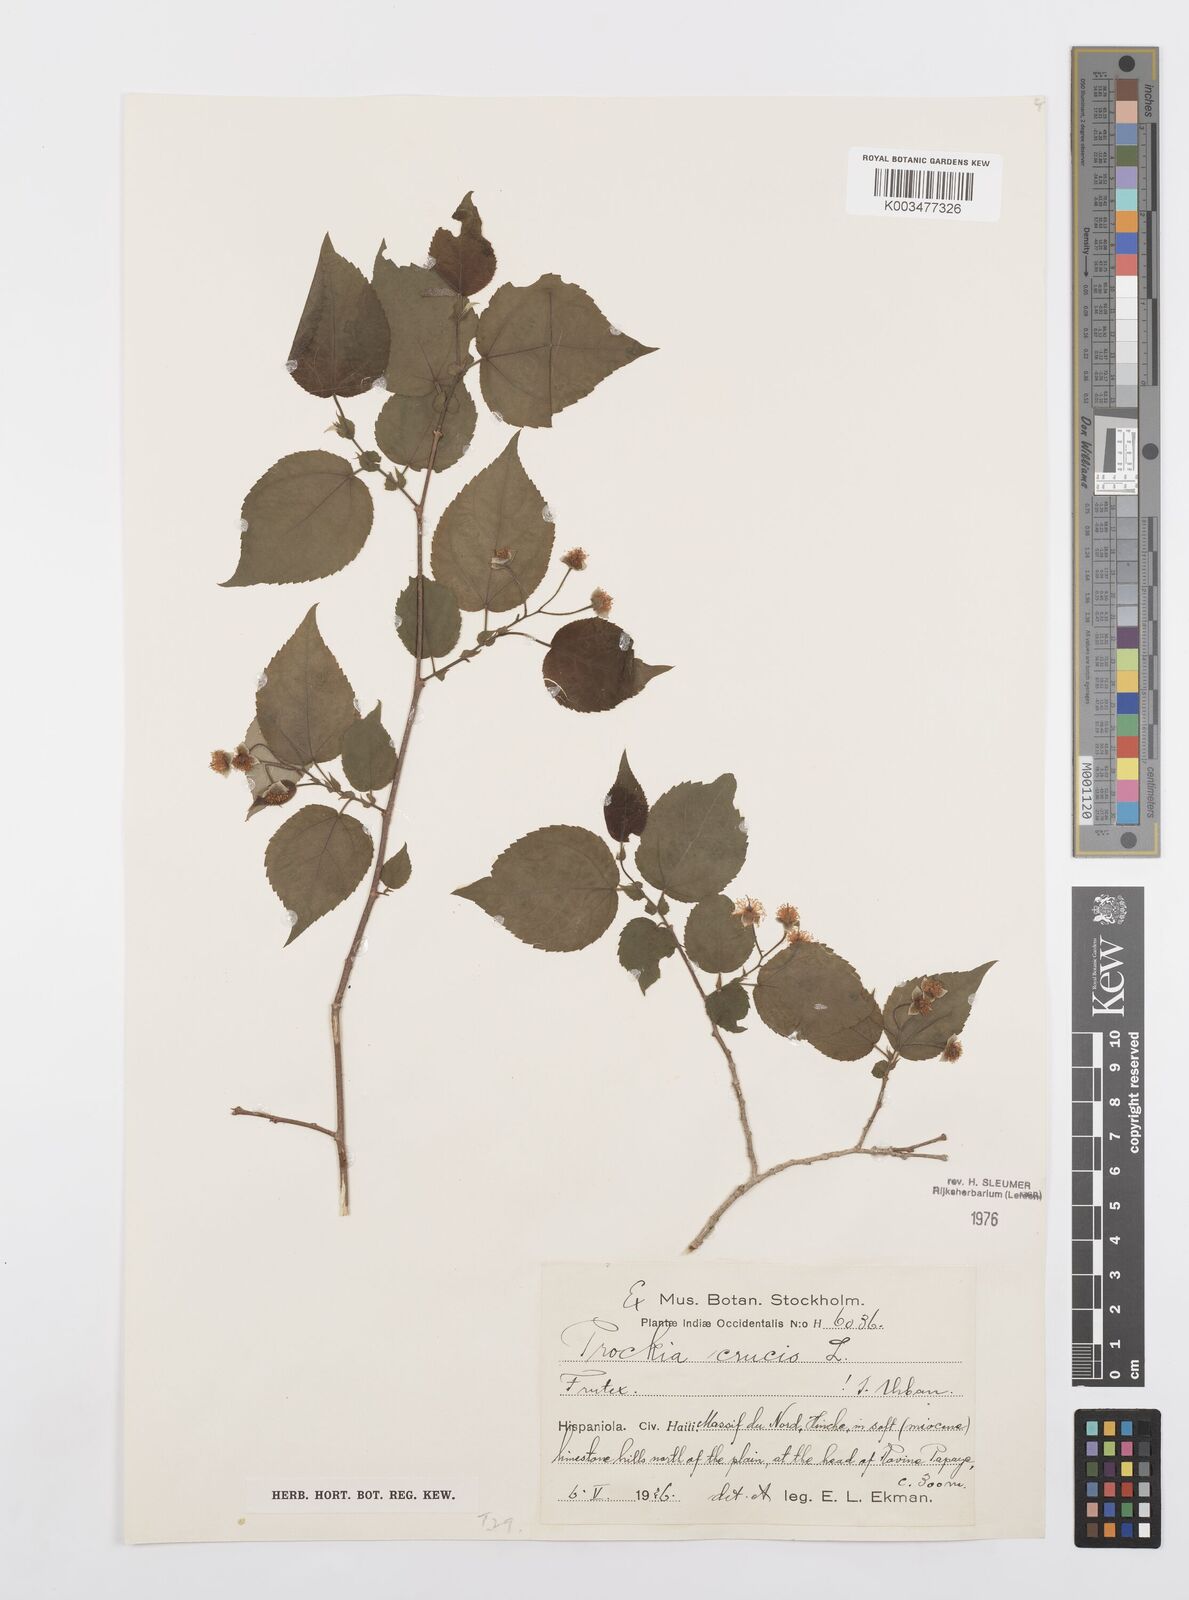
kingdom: Plantae
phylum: Tracheophyta
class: Magnoliopsida
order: Malpighiales
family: Salicaceae
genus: Prockia
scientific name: Prockia crucis
